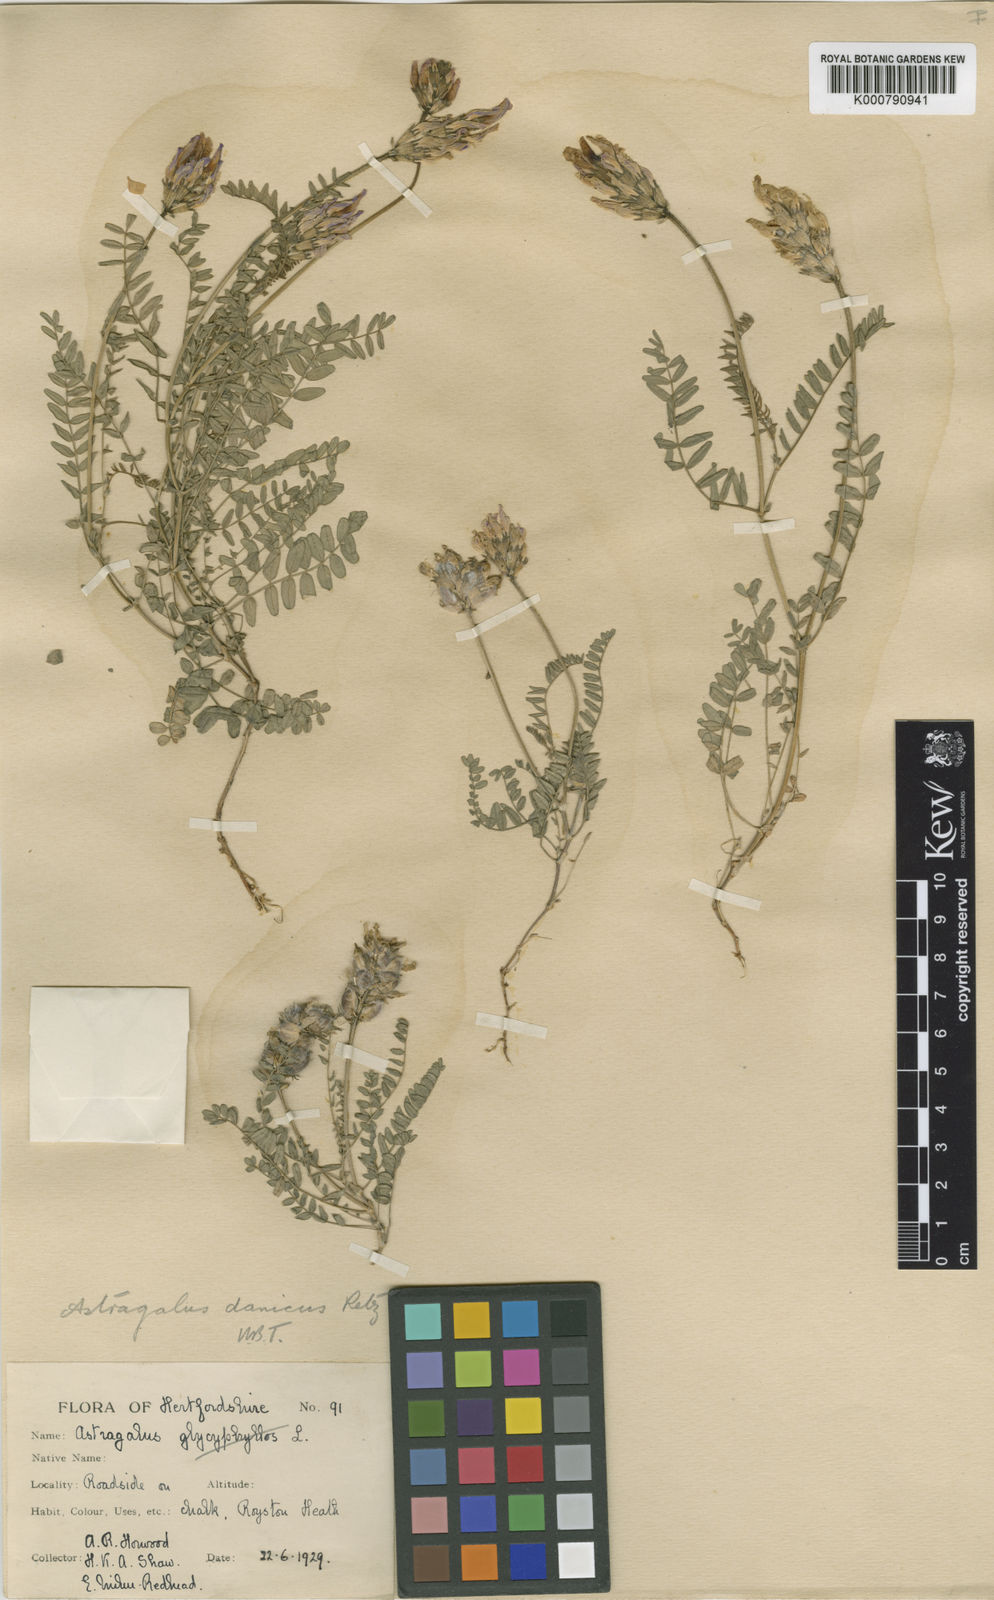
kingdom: Plantae
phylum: Tracheophyta
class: Magnoliopsida
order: Fabales
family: Fabaceae
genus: Astragalus
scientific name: Astragalus danicus
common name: Purple milk-vetch
